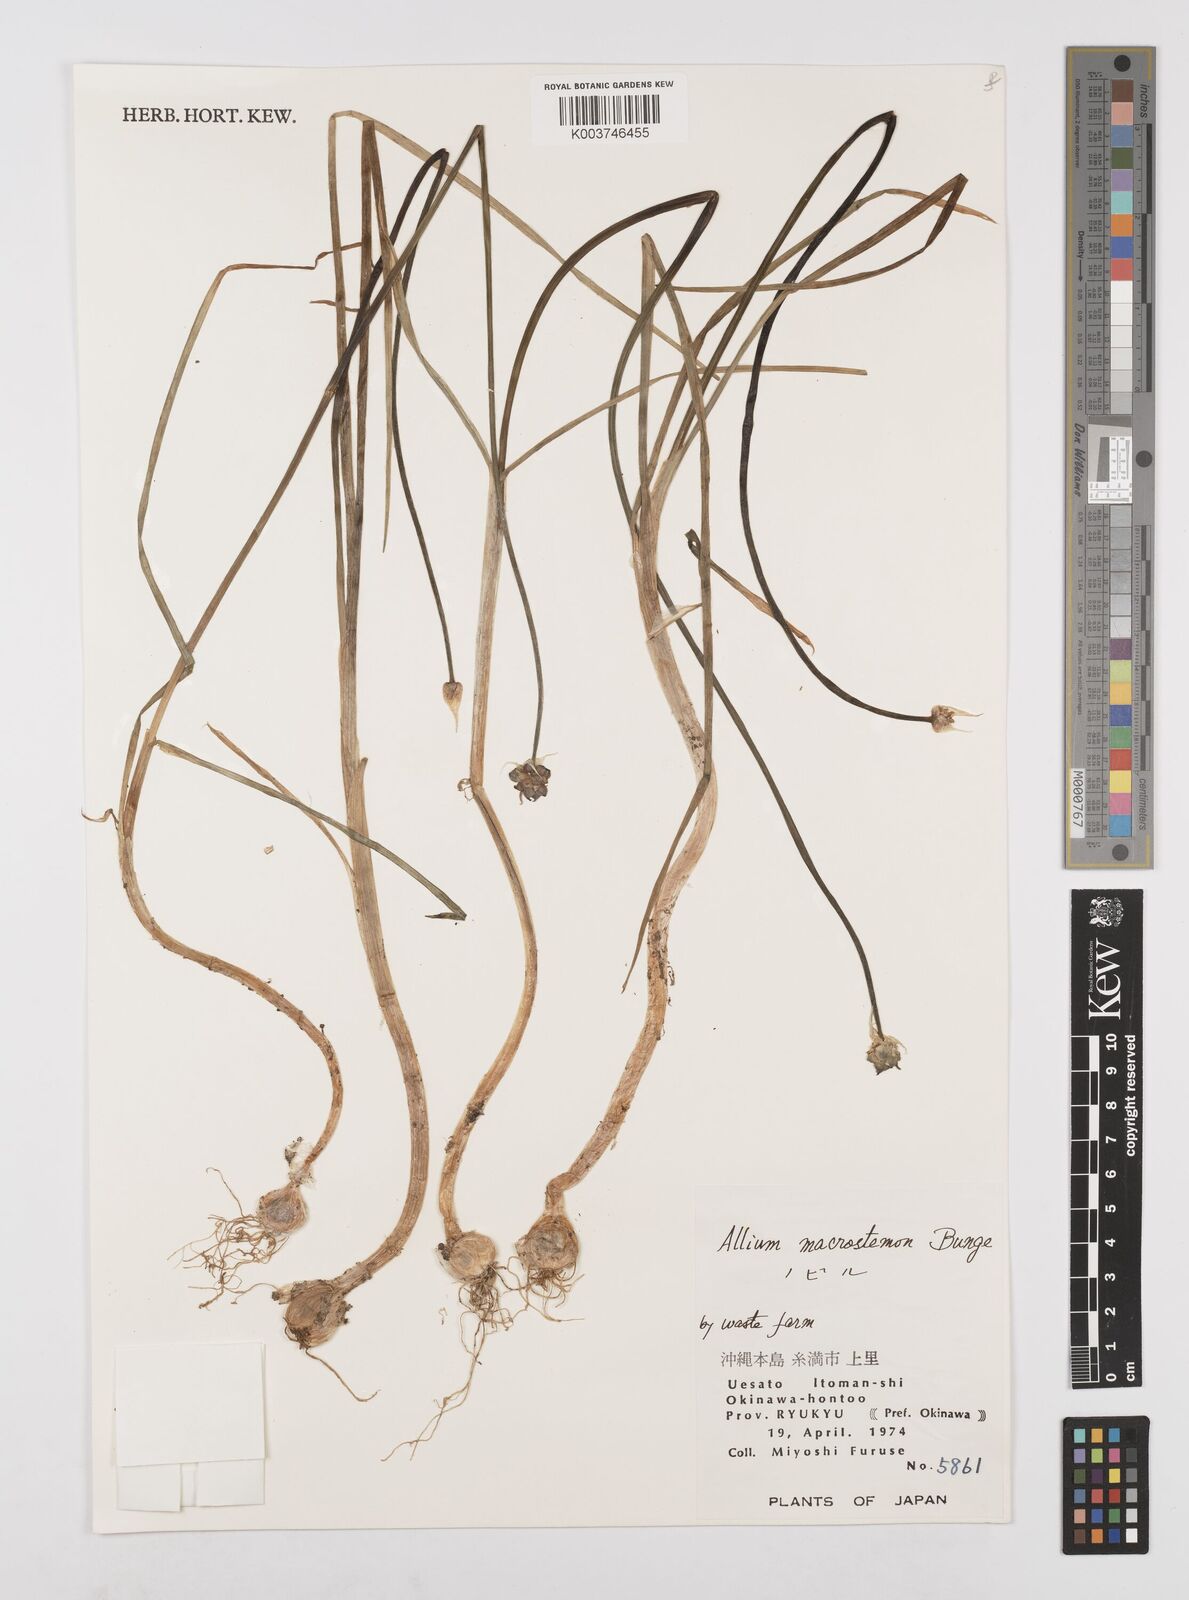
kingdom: Plantae
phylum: Tracheophyta
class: Liliopsida
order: Asparagales
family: Amaryllidaceae
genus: Allium
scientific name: Allium macrostemon
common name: Chinese garlic
